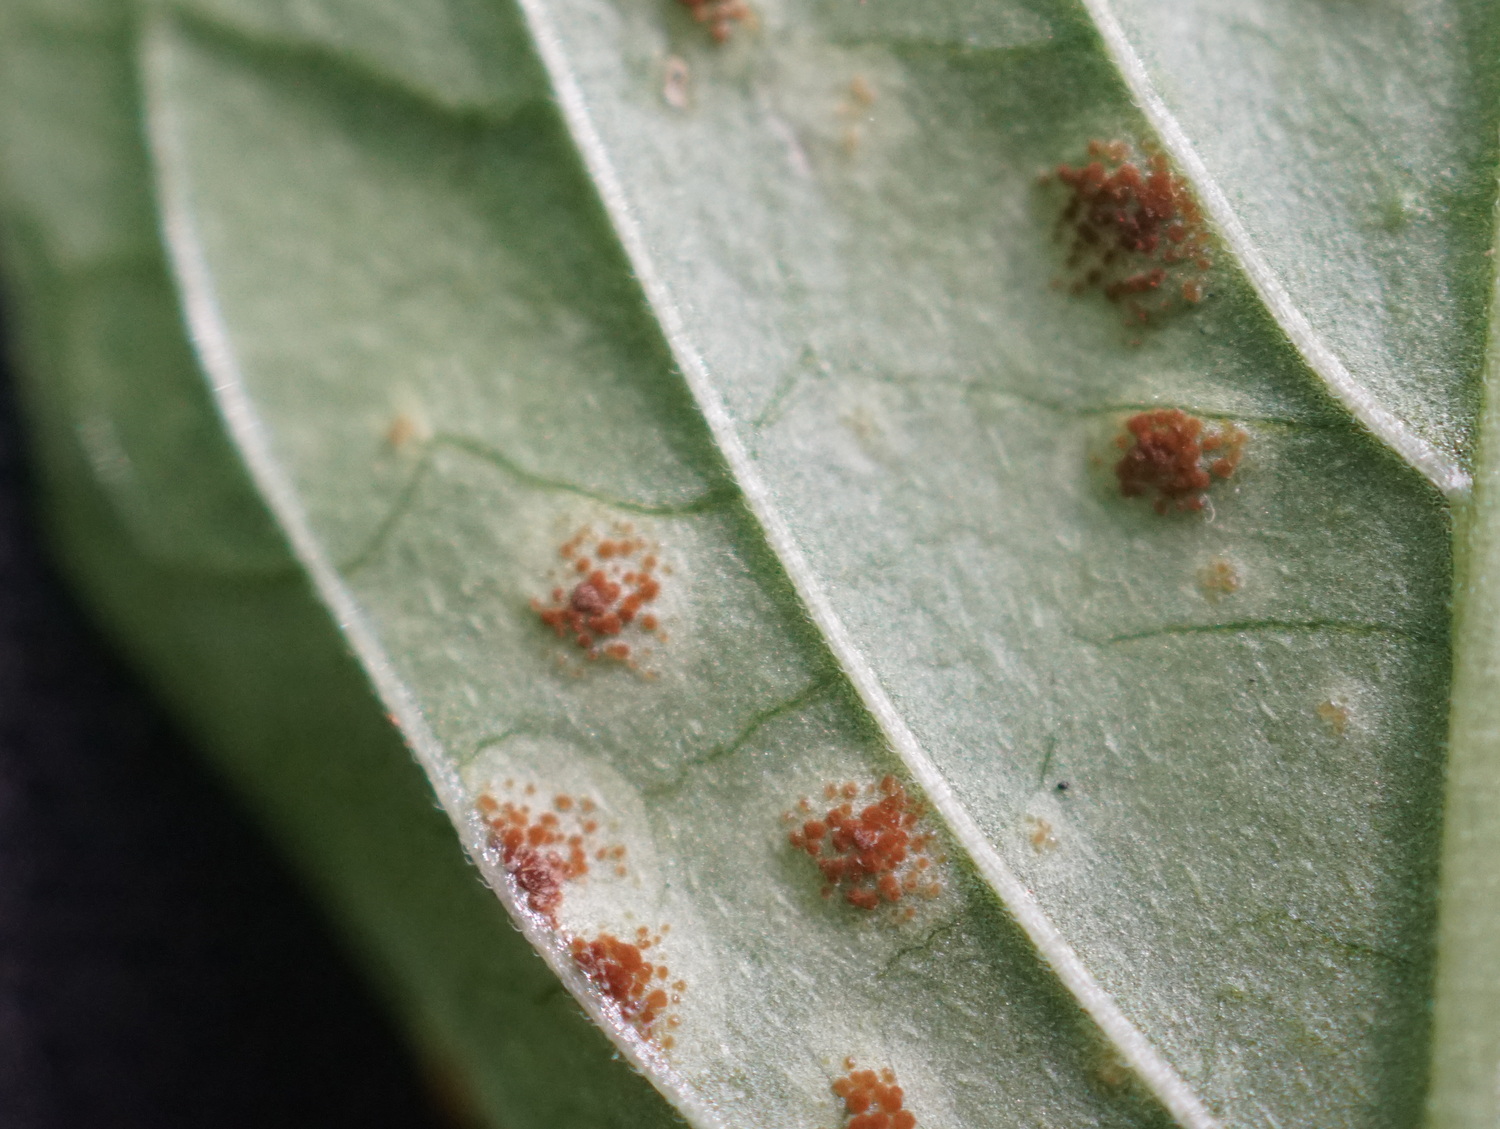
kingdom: Fungi
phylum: Basidiomycota
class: Pucciniomycetes
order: Pucciniales
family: Pucciniaceae
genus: Puccinia
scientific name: Puccinia circaeae
